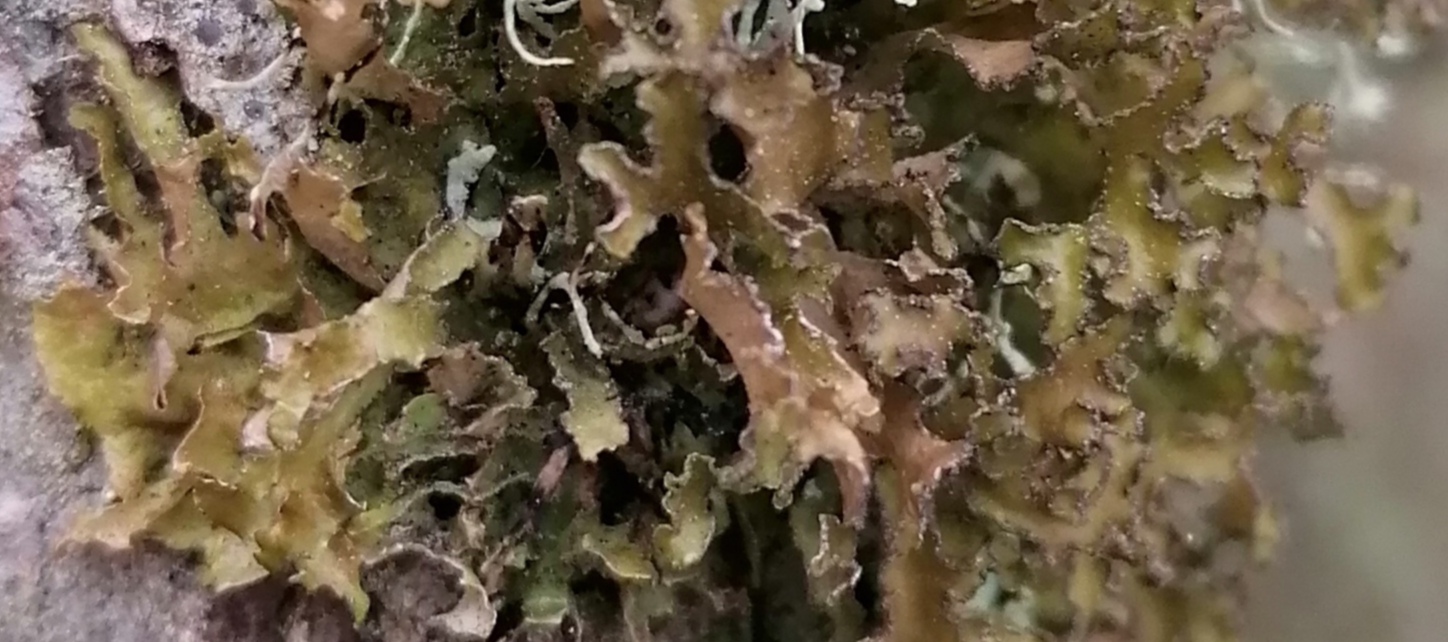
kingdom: Fungi
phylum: Ascomycota
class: Lecanoromycetes
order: Lecanorales
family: Parmeliaceae
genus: Nephromopsis
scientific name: Nephromopsis chlorophylla
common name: olivenbrun kruslav
